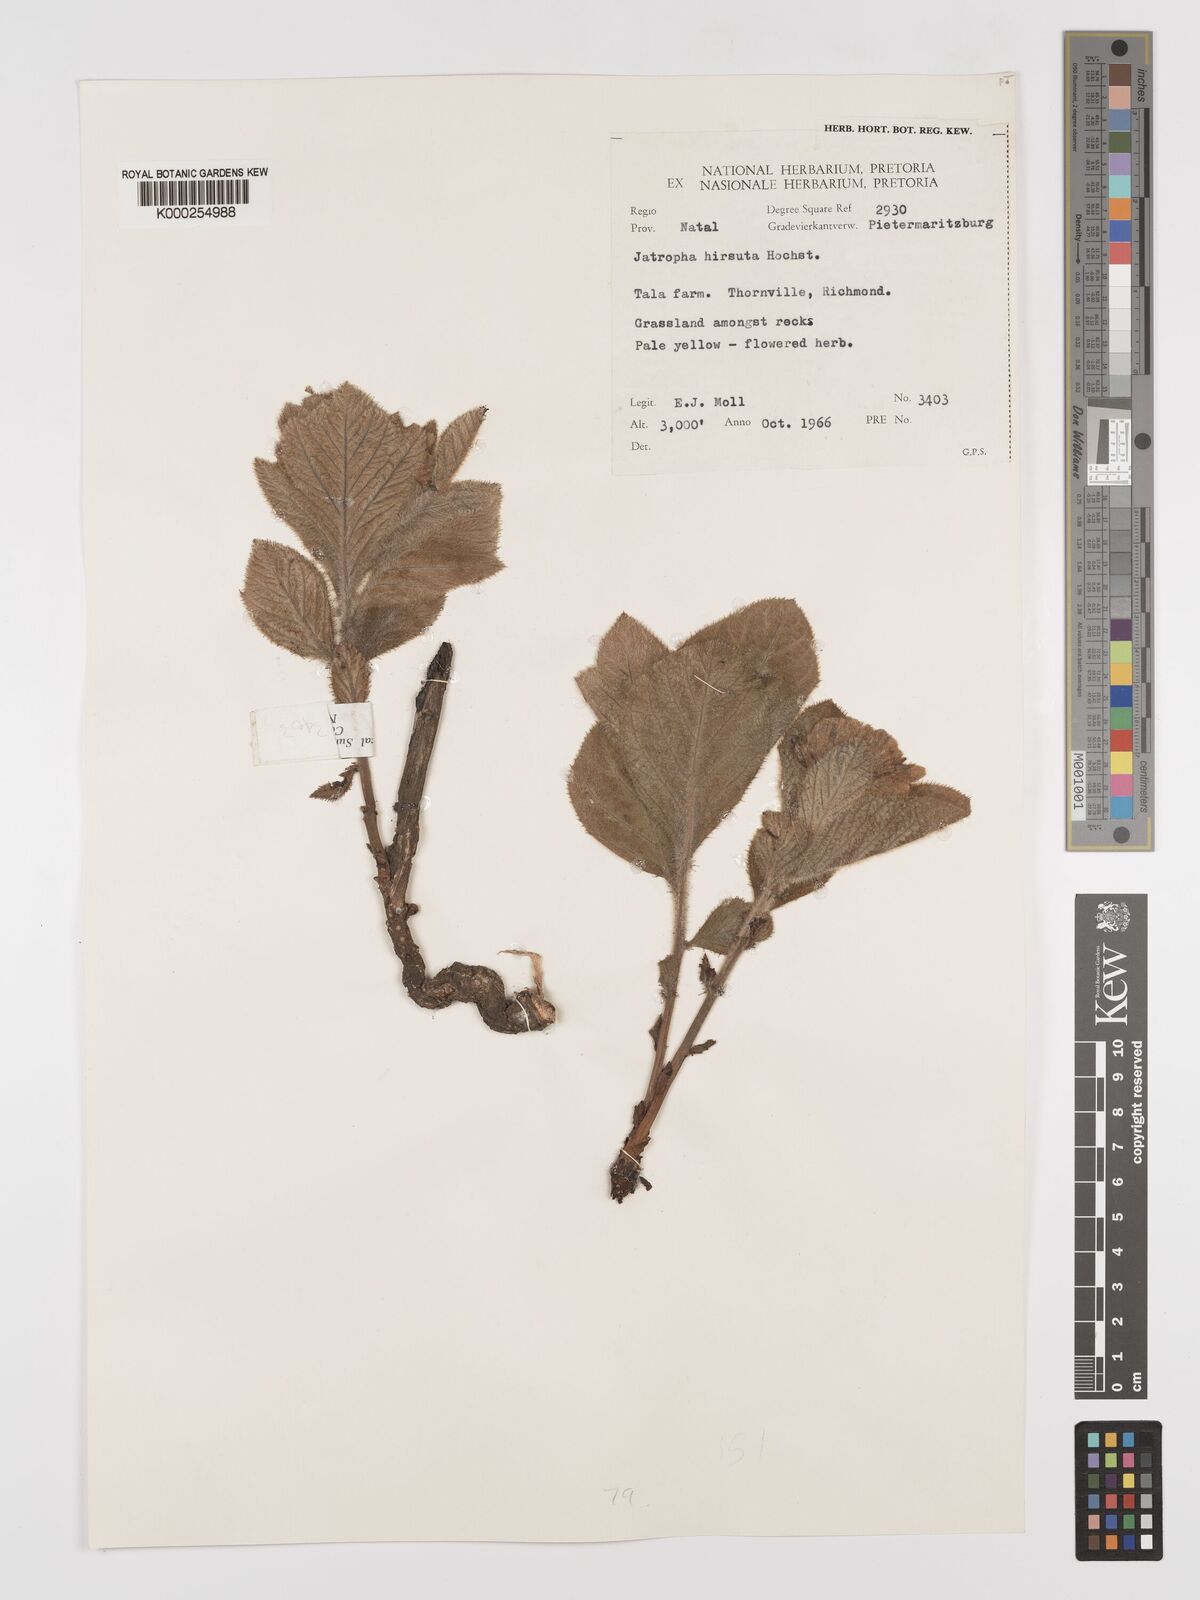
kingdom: Plantae
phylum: Tracheophyta
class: Magnoliopsida
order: Malpighiales
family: Euphorbiaceae
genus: Jatropha
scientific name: Jatropha hirsuta
